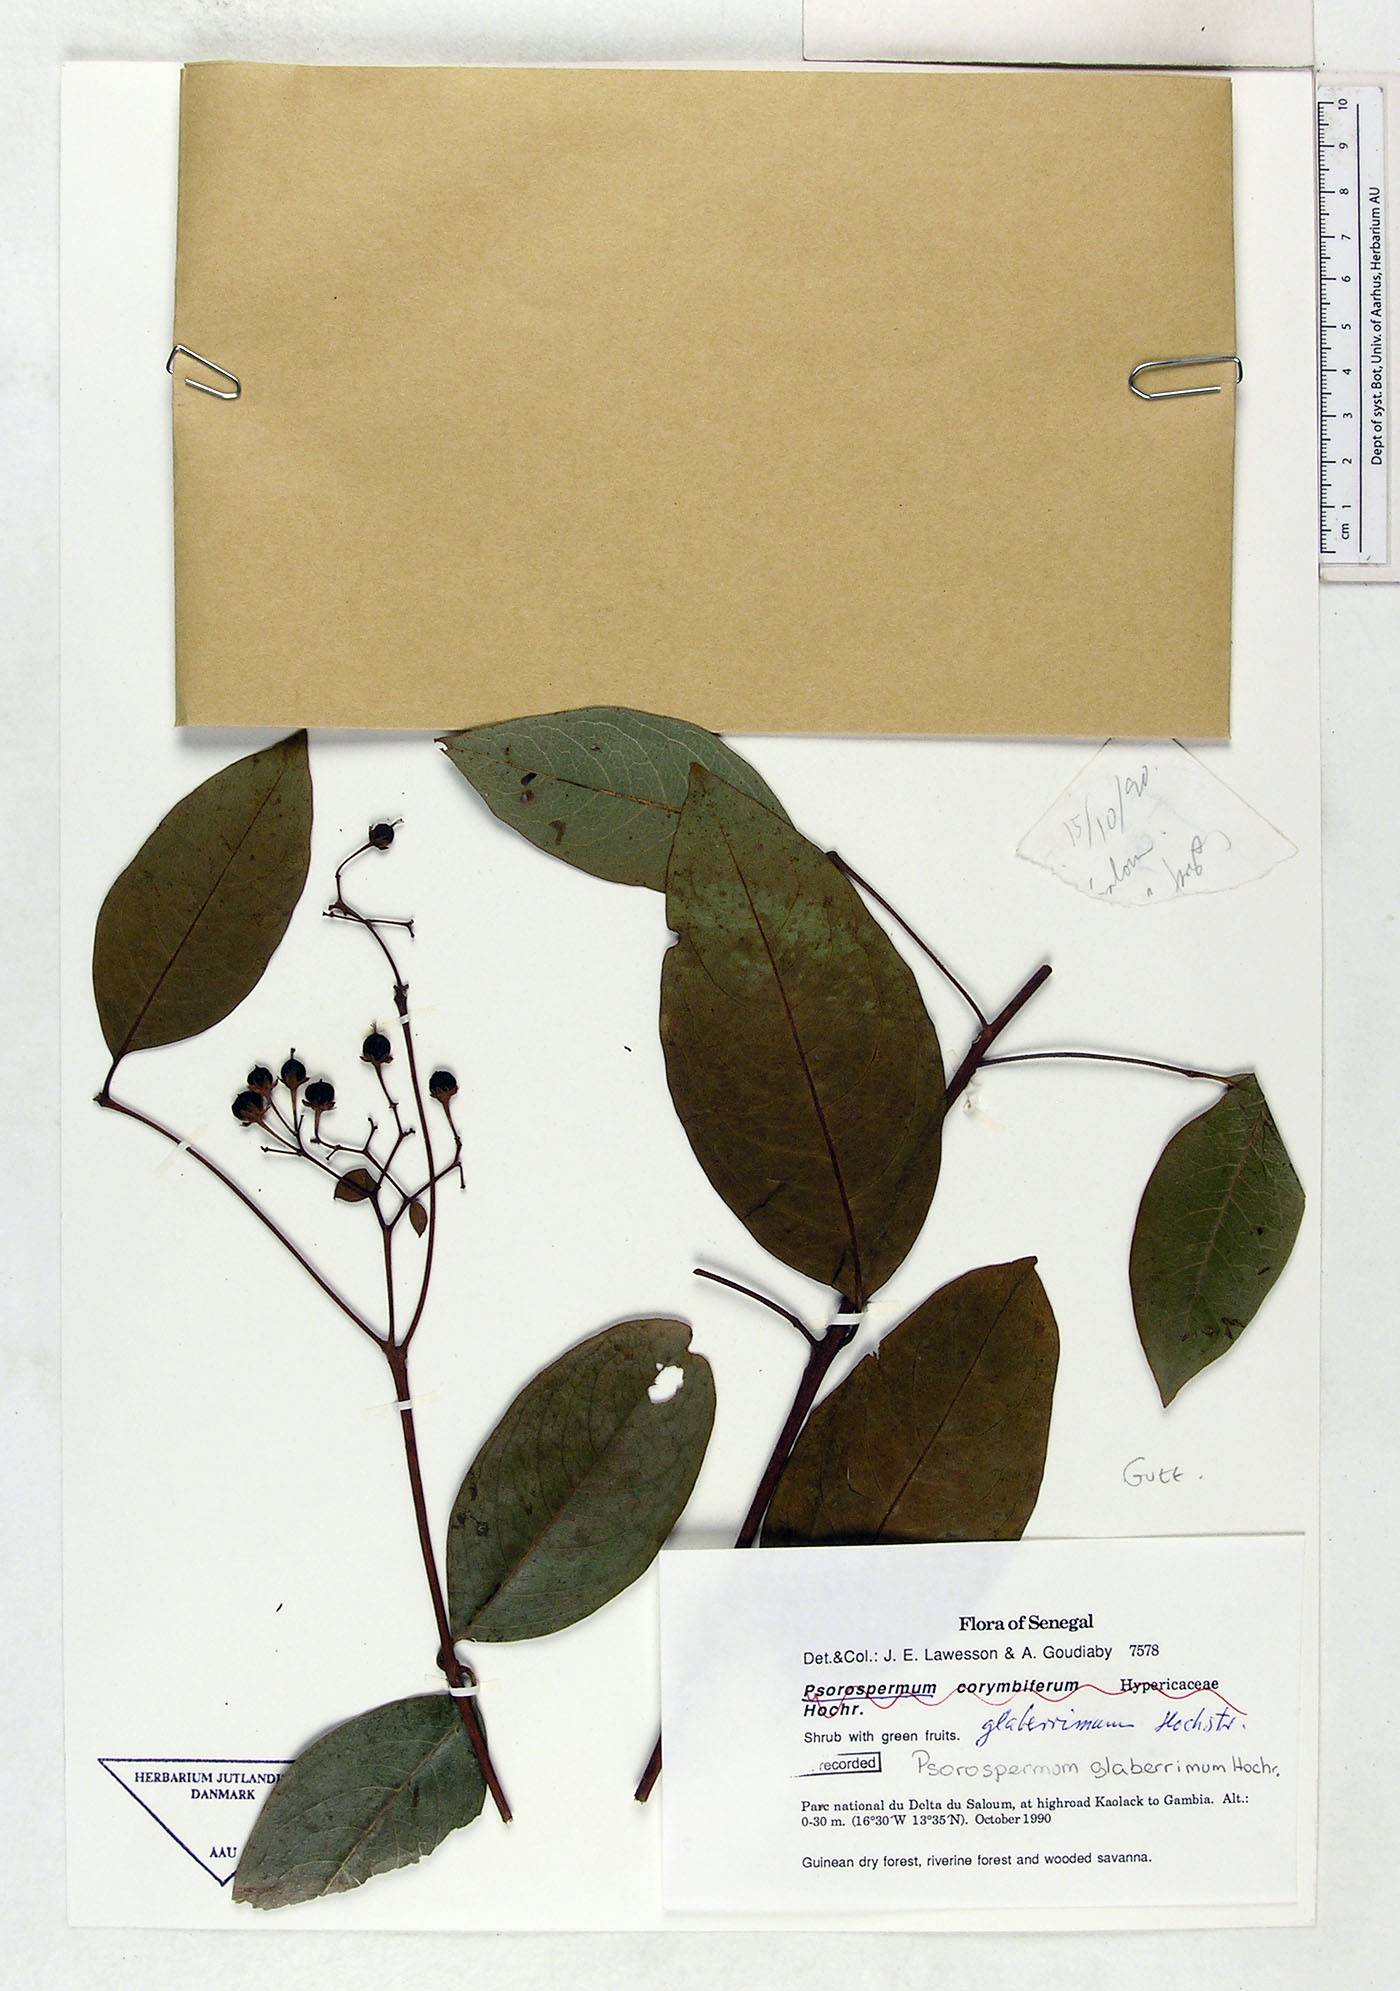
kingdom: Plantae
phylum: Tracheophyta
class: Magnoliopsida
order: Malpighiales
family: Hypericaceae
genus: Psorospermum
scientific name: Psorospermum glaberrimum
